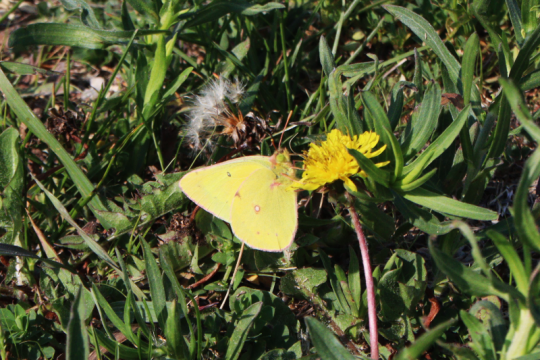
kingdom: Animalia
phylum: Arthropoda
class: Insecta
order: Lepidoptera
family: Pieridae
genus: Colias
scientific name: Colias philodice
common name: Clouded Sulphur
